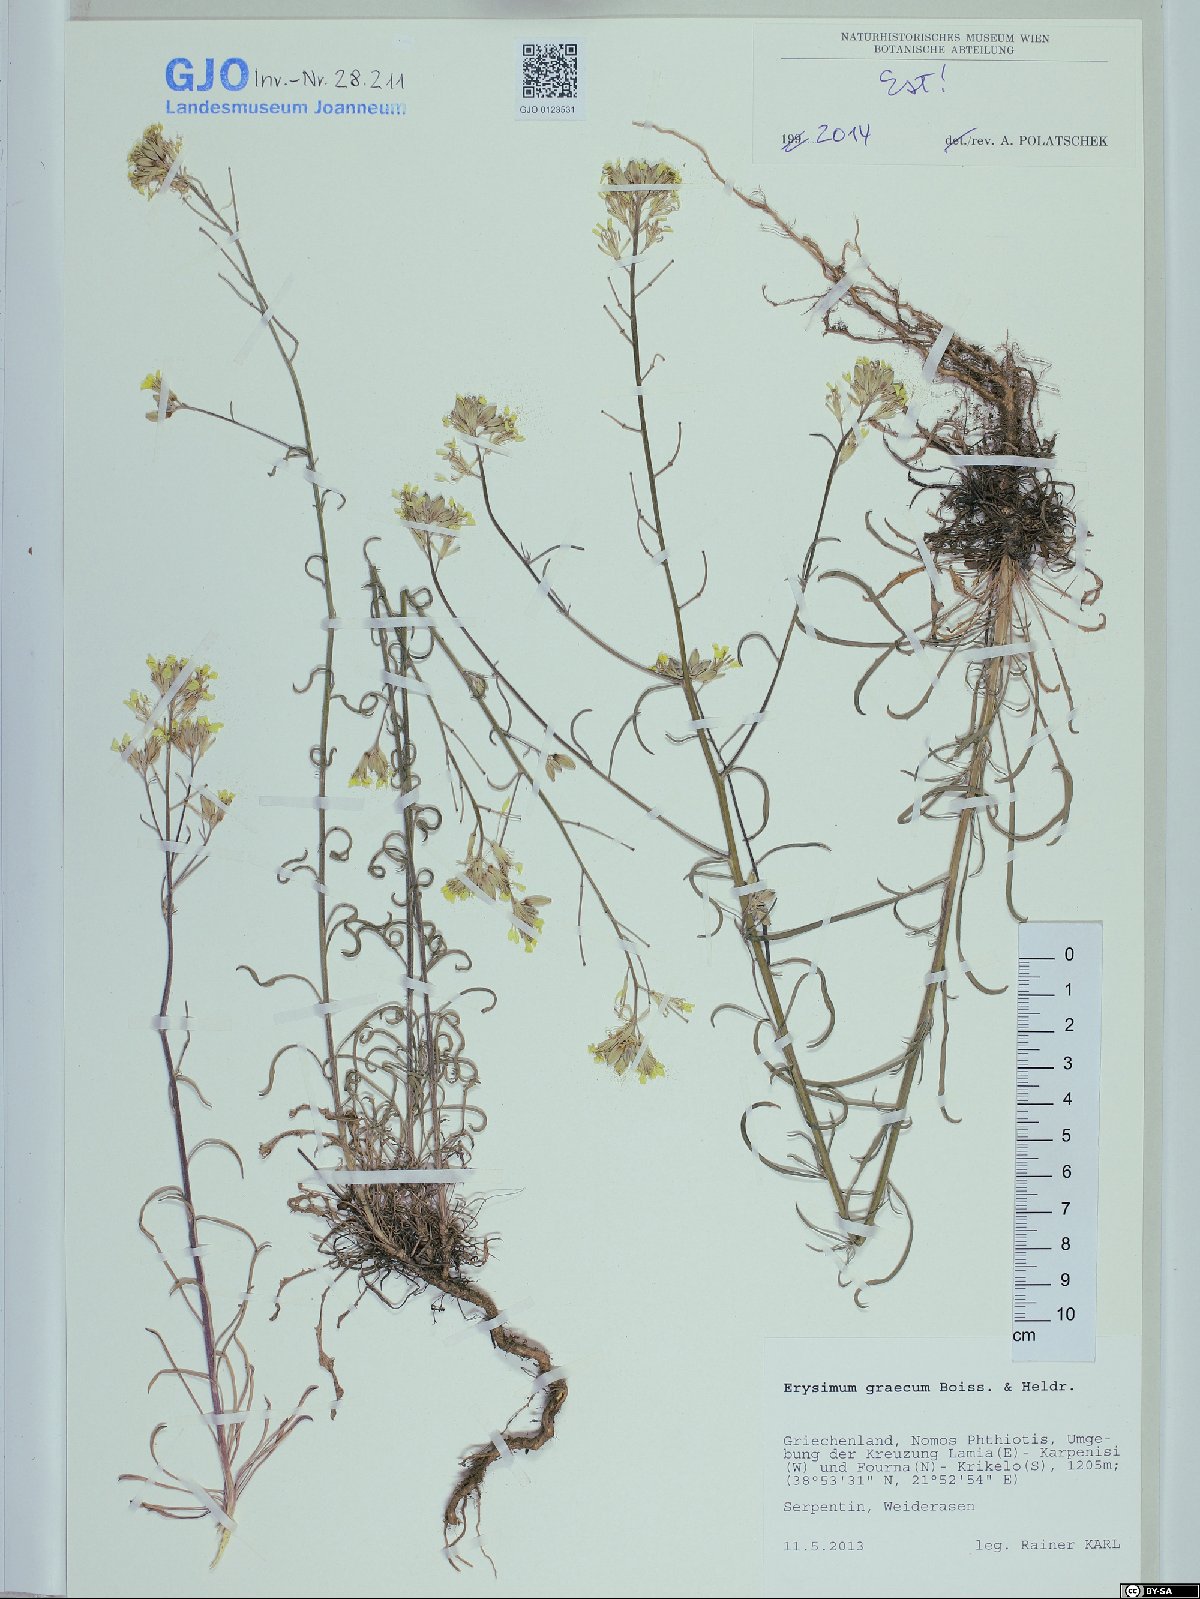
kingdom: Plantae
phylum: Tracheophyta
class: Magnoliopsida
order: Brassicales
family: Brassicaceae
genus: Erysimum
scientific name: Erysimum graecum
